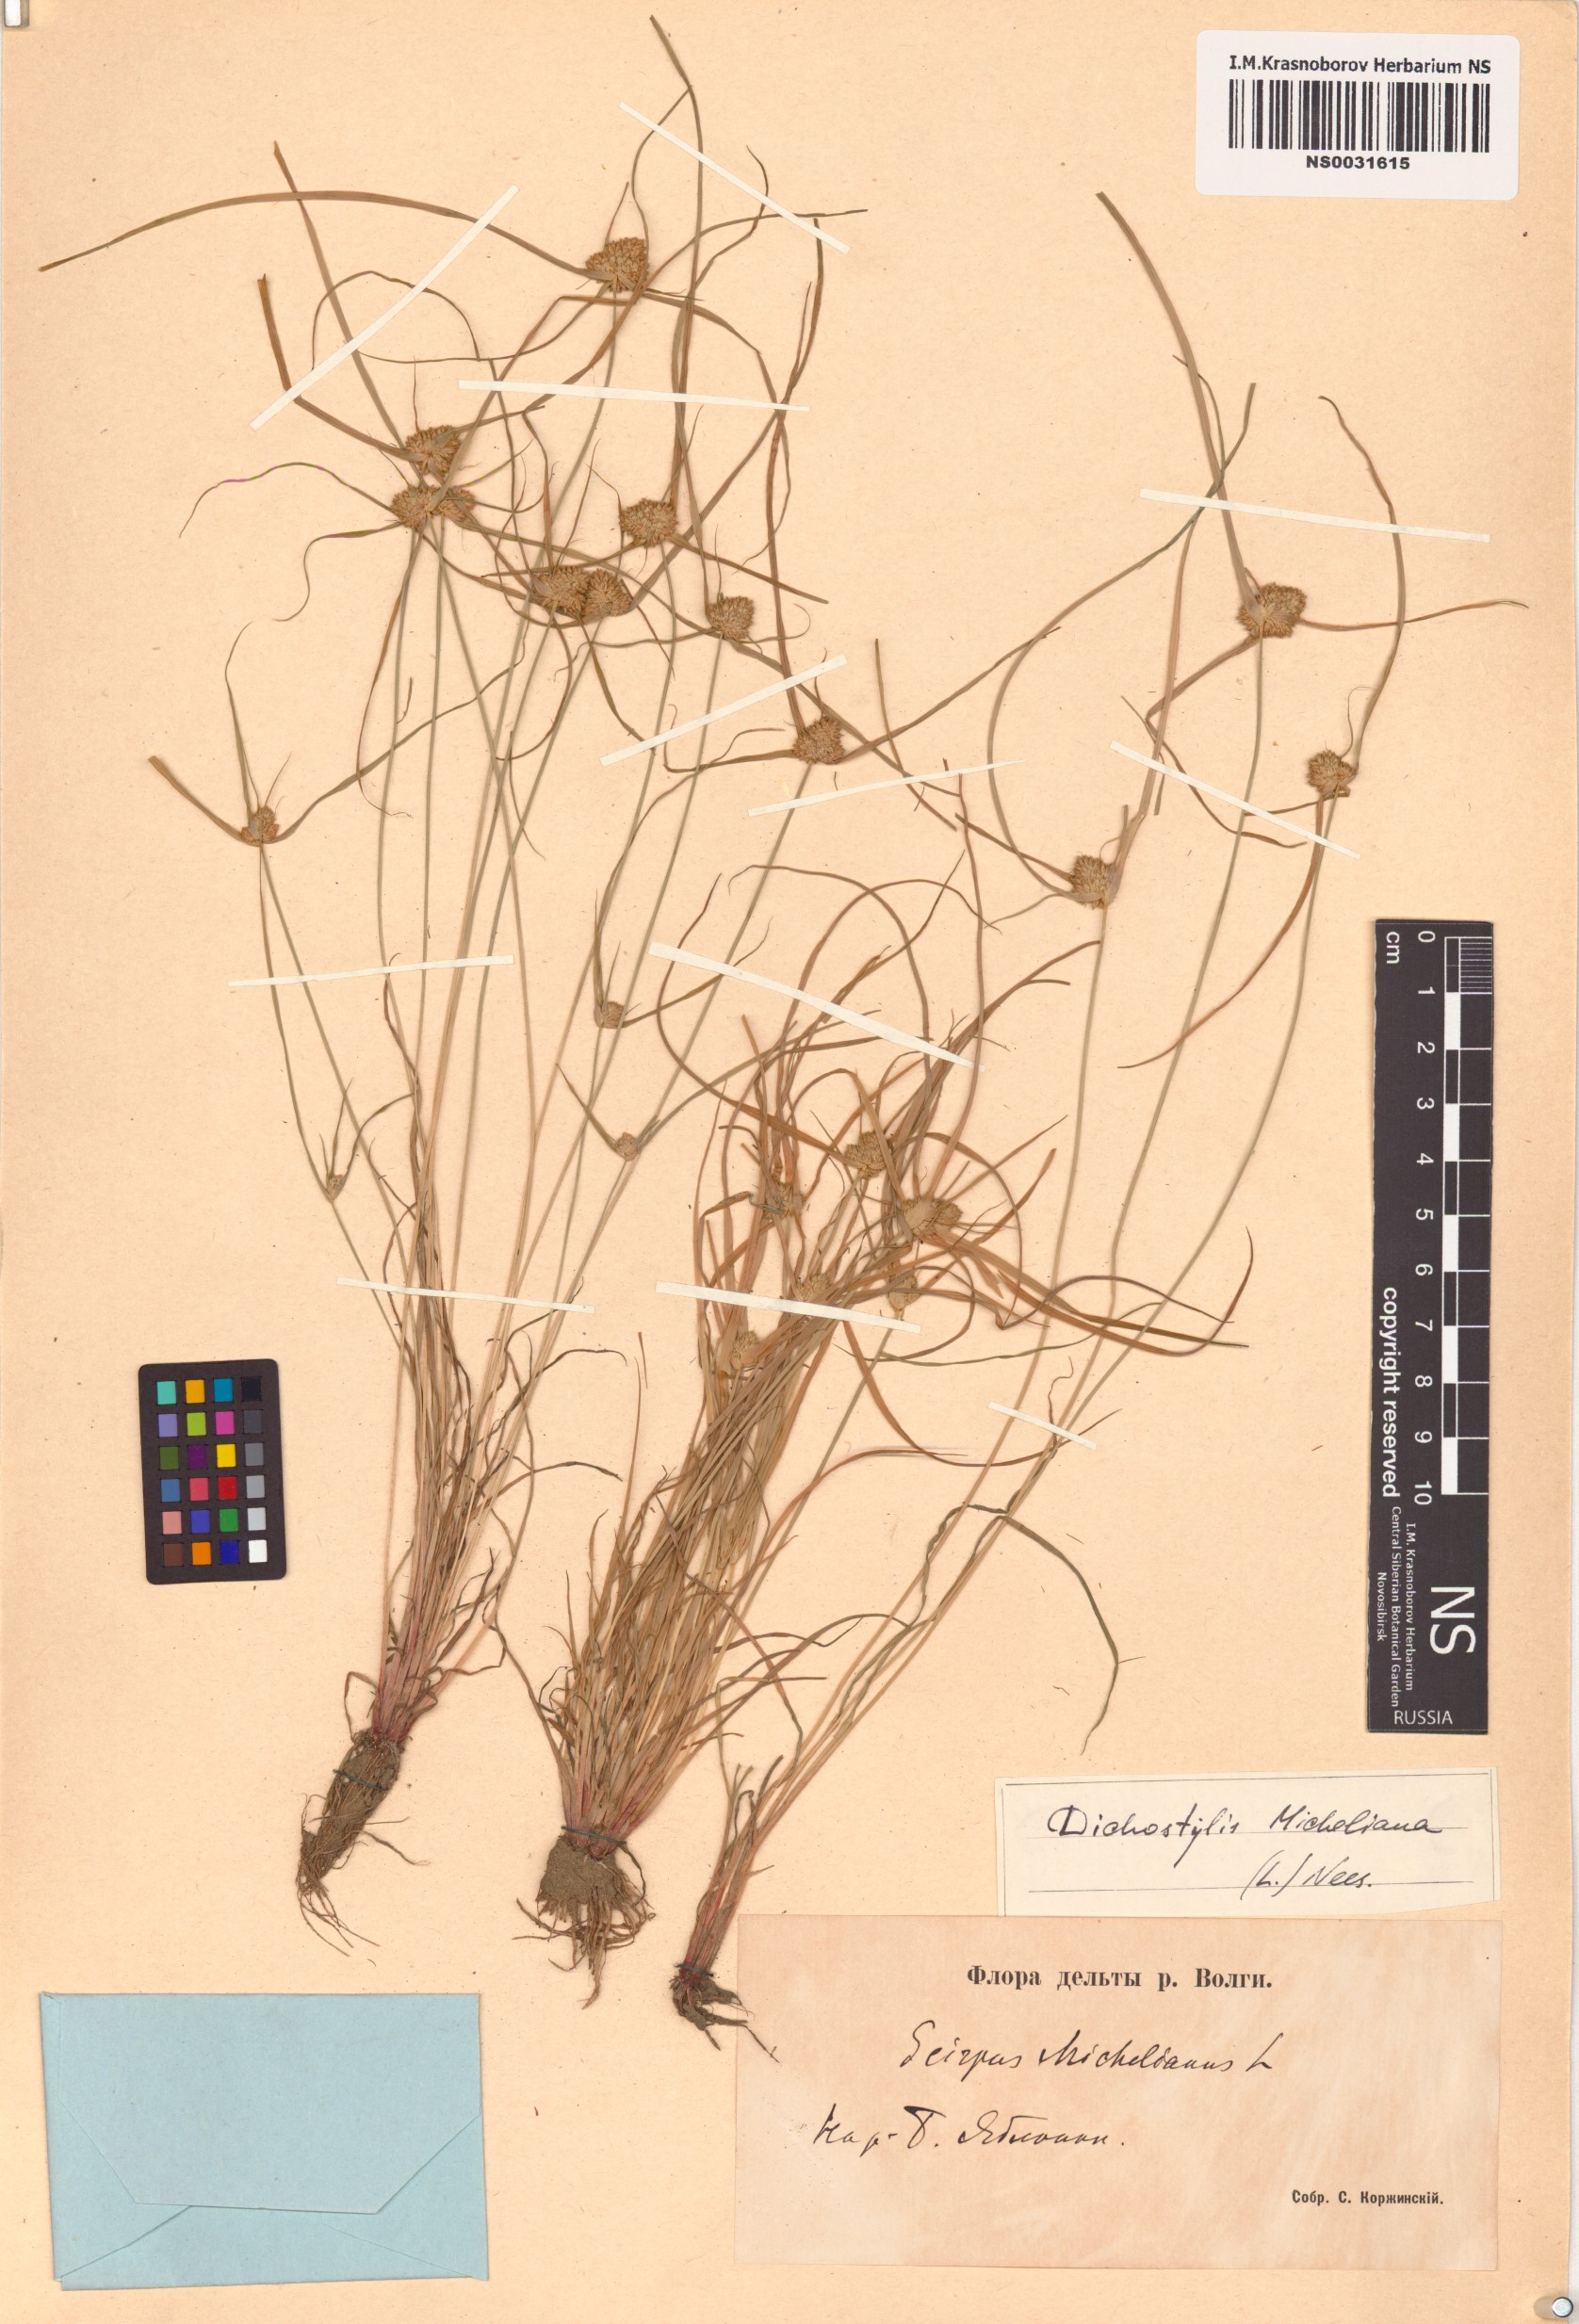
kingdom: Plantae
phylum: Tracheophyta
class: Liliopsida
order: Poales
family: Cyperaceae
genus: Cyperus
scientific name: Cyperus michelianus
